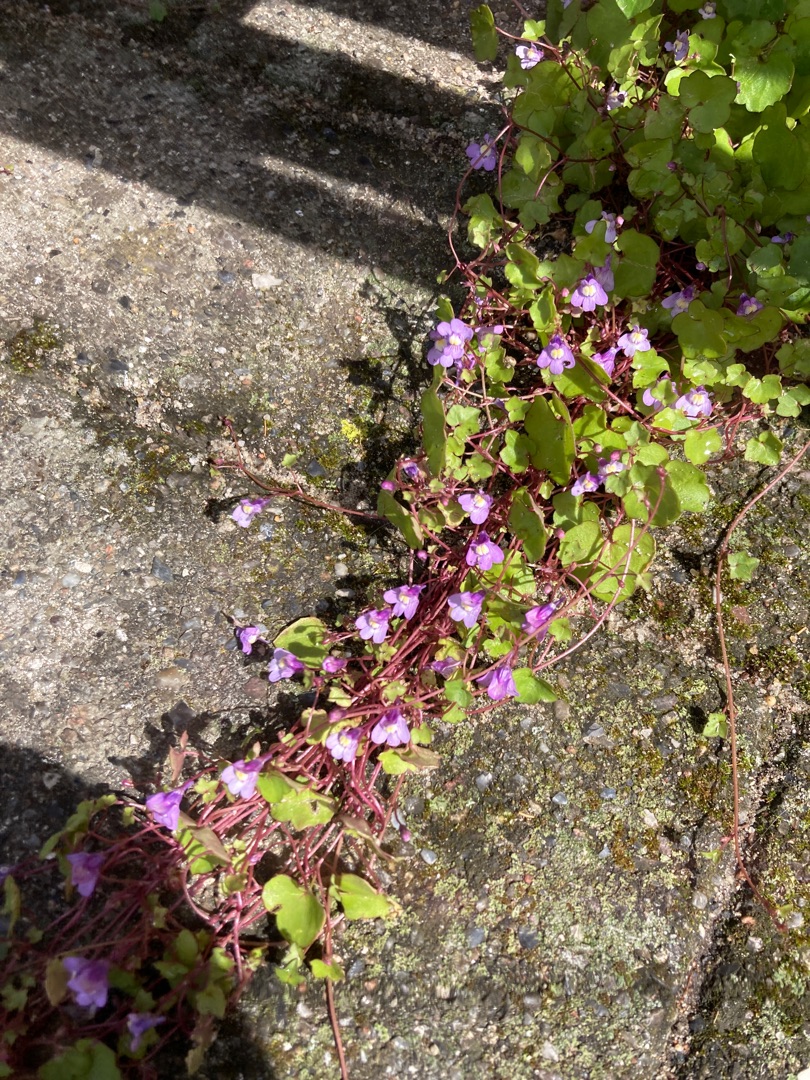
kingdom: Plantae
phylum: Tracheophyta
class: Magnoliopsida
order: Lamiales
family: Plantaginaceae
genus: Cymbalaria
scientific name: Cymbalaria muralis
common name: Vedbend-torskemund
